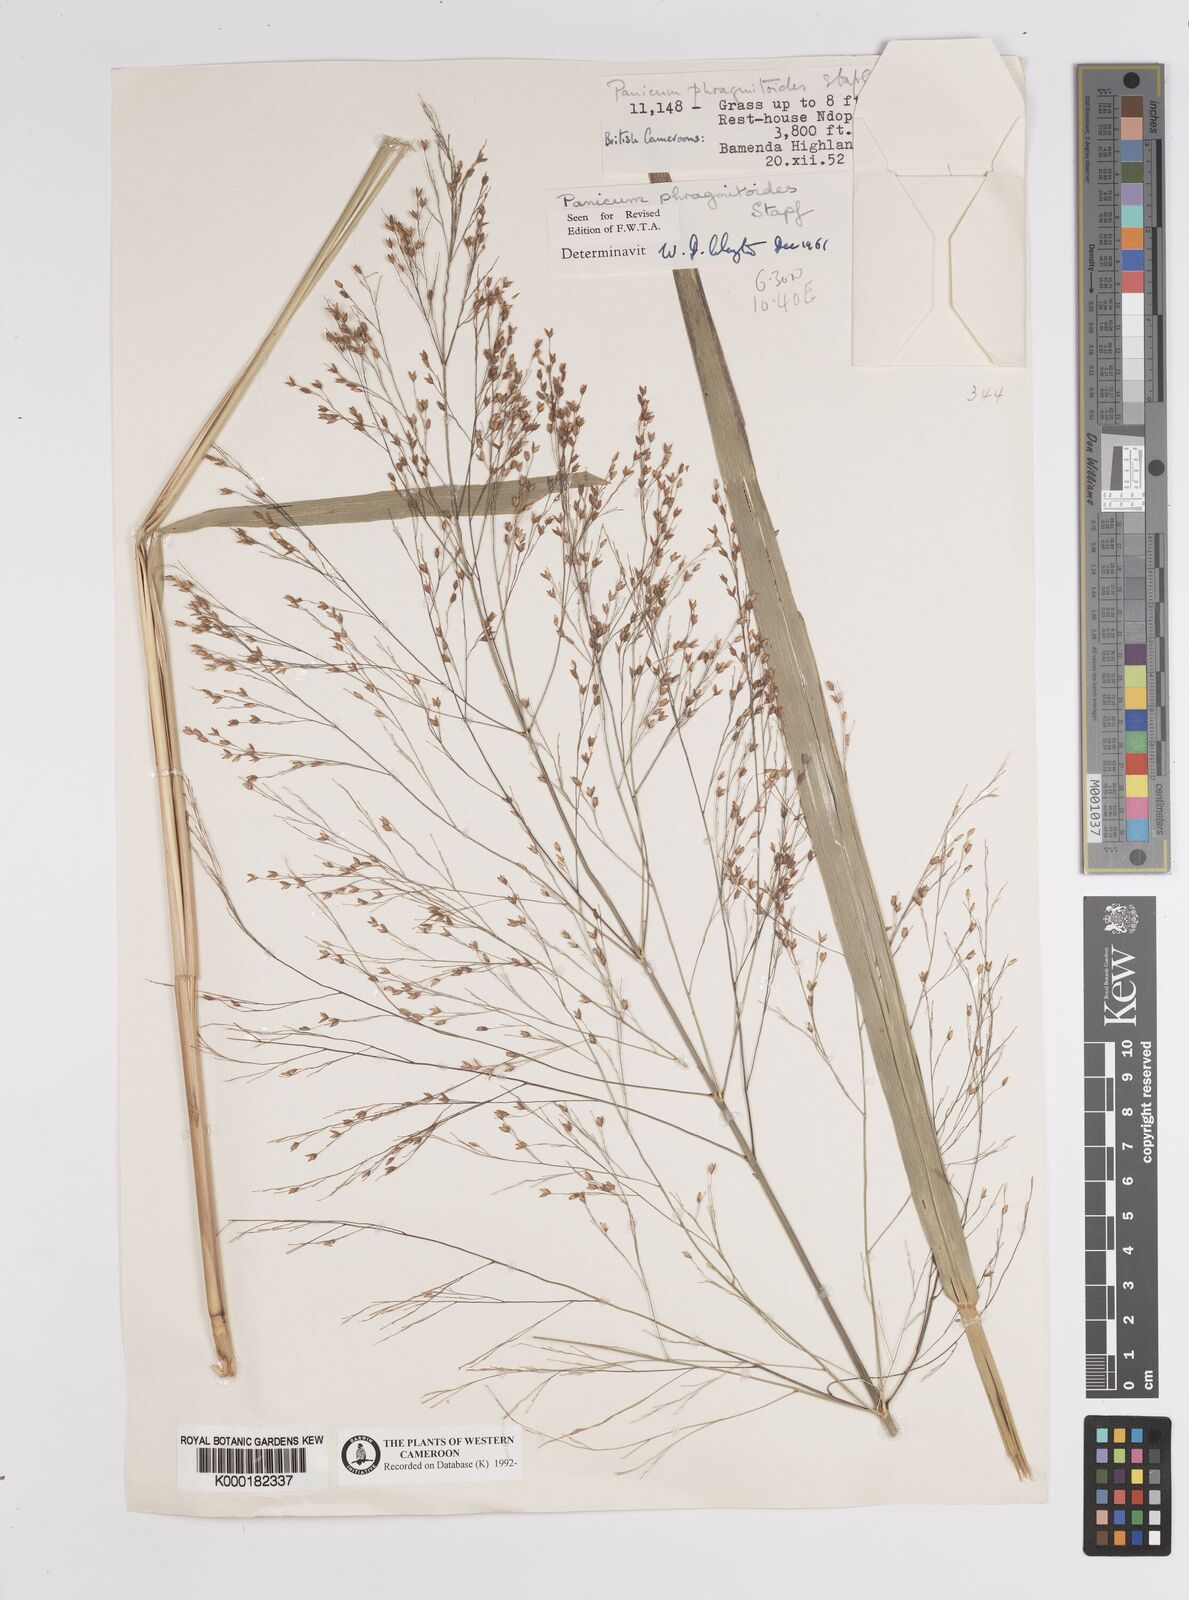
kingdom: Plantae
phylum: Tracheophyta
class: Liliopsida
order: Poales
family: Poaceae
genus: Panicum
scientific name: Panicum phragmitoides
